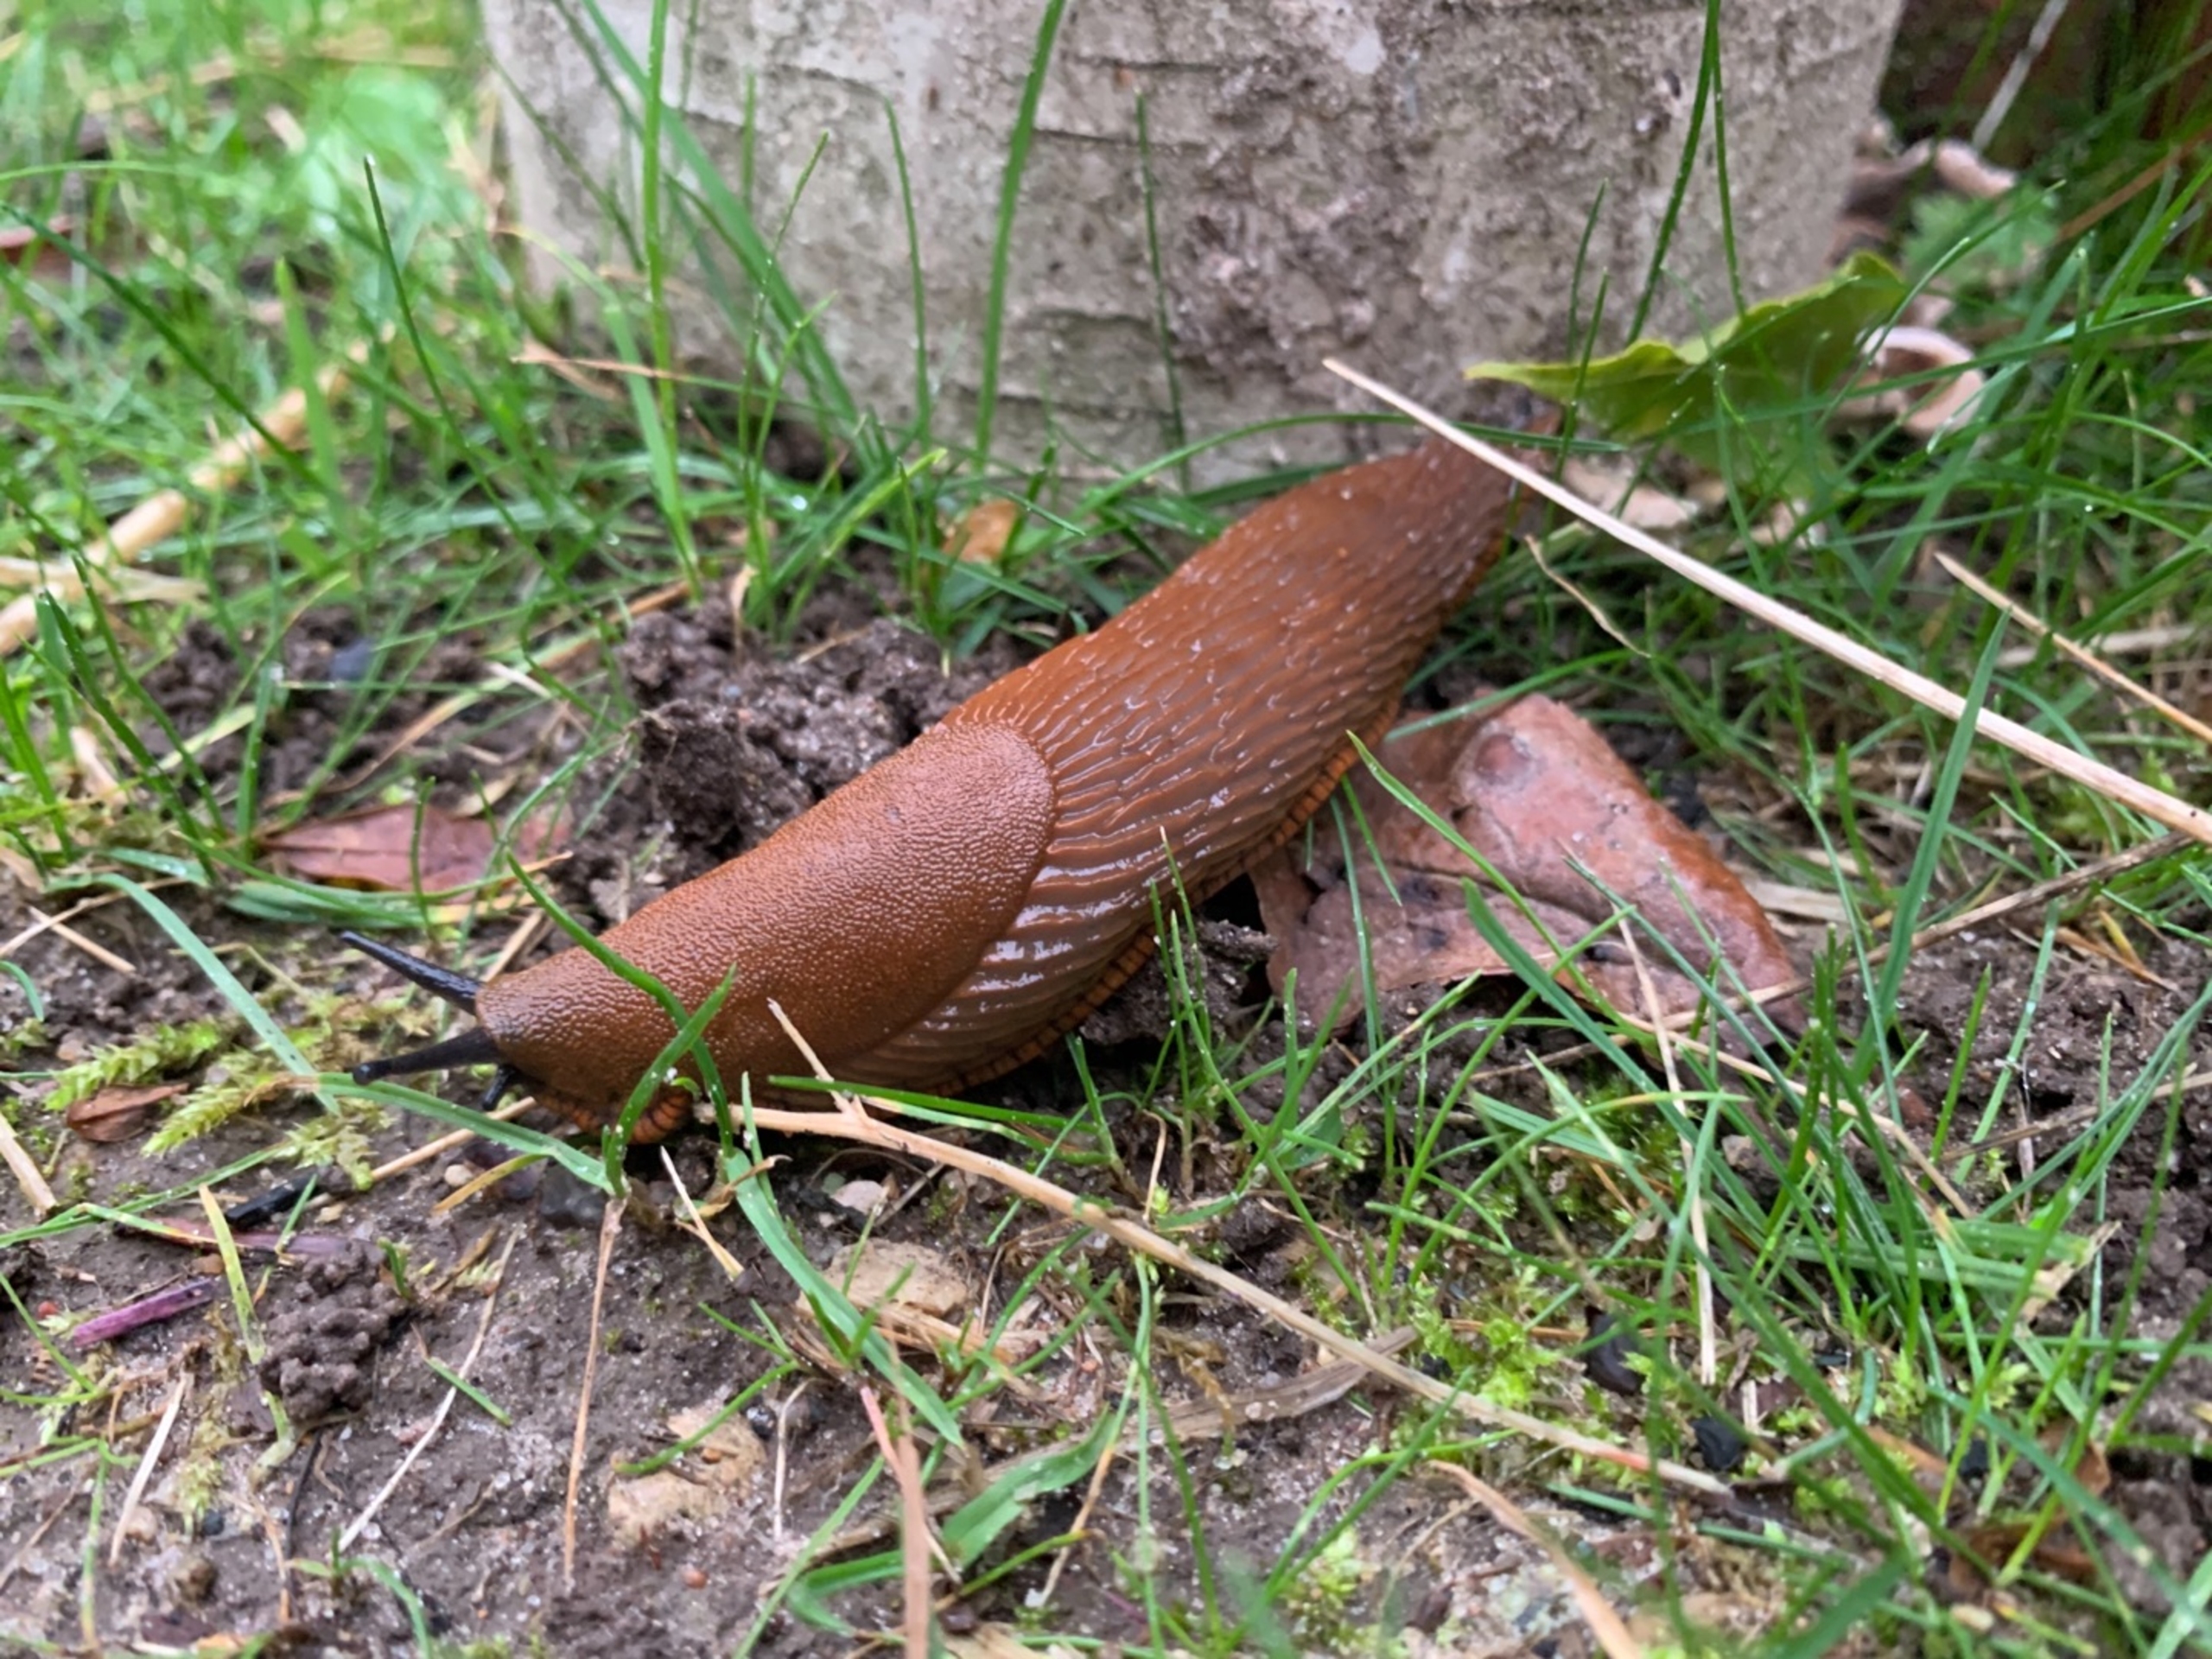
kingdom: Animalia
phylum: Mollusca
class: Gastropoda
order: Stylommatophora
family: Arionidae
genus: Arion
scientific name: Arion vulgaris
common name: Iberisk skovsnegl
